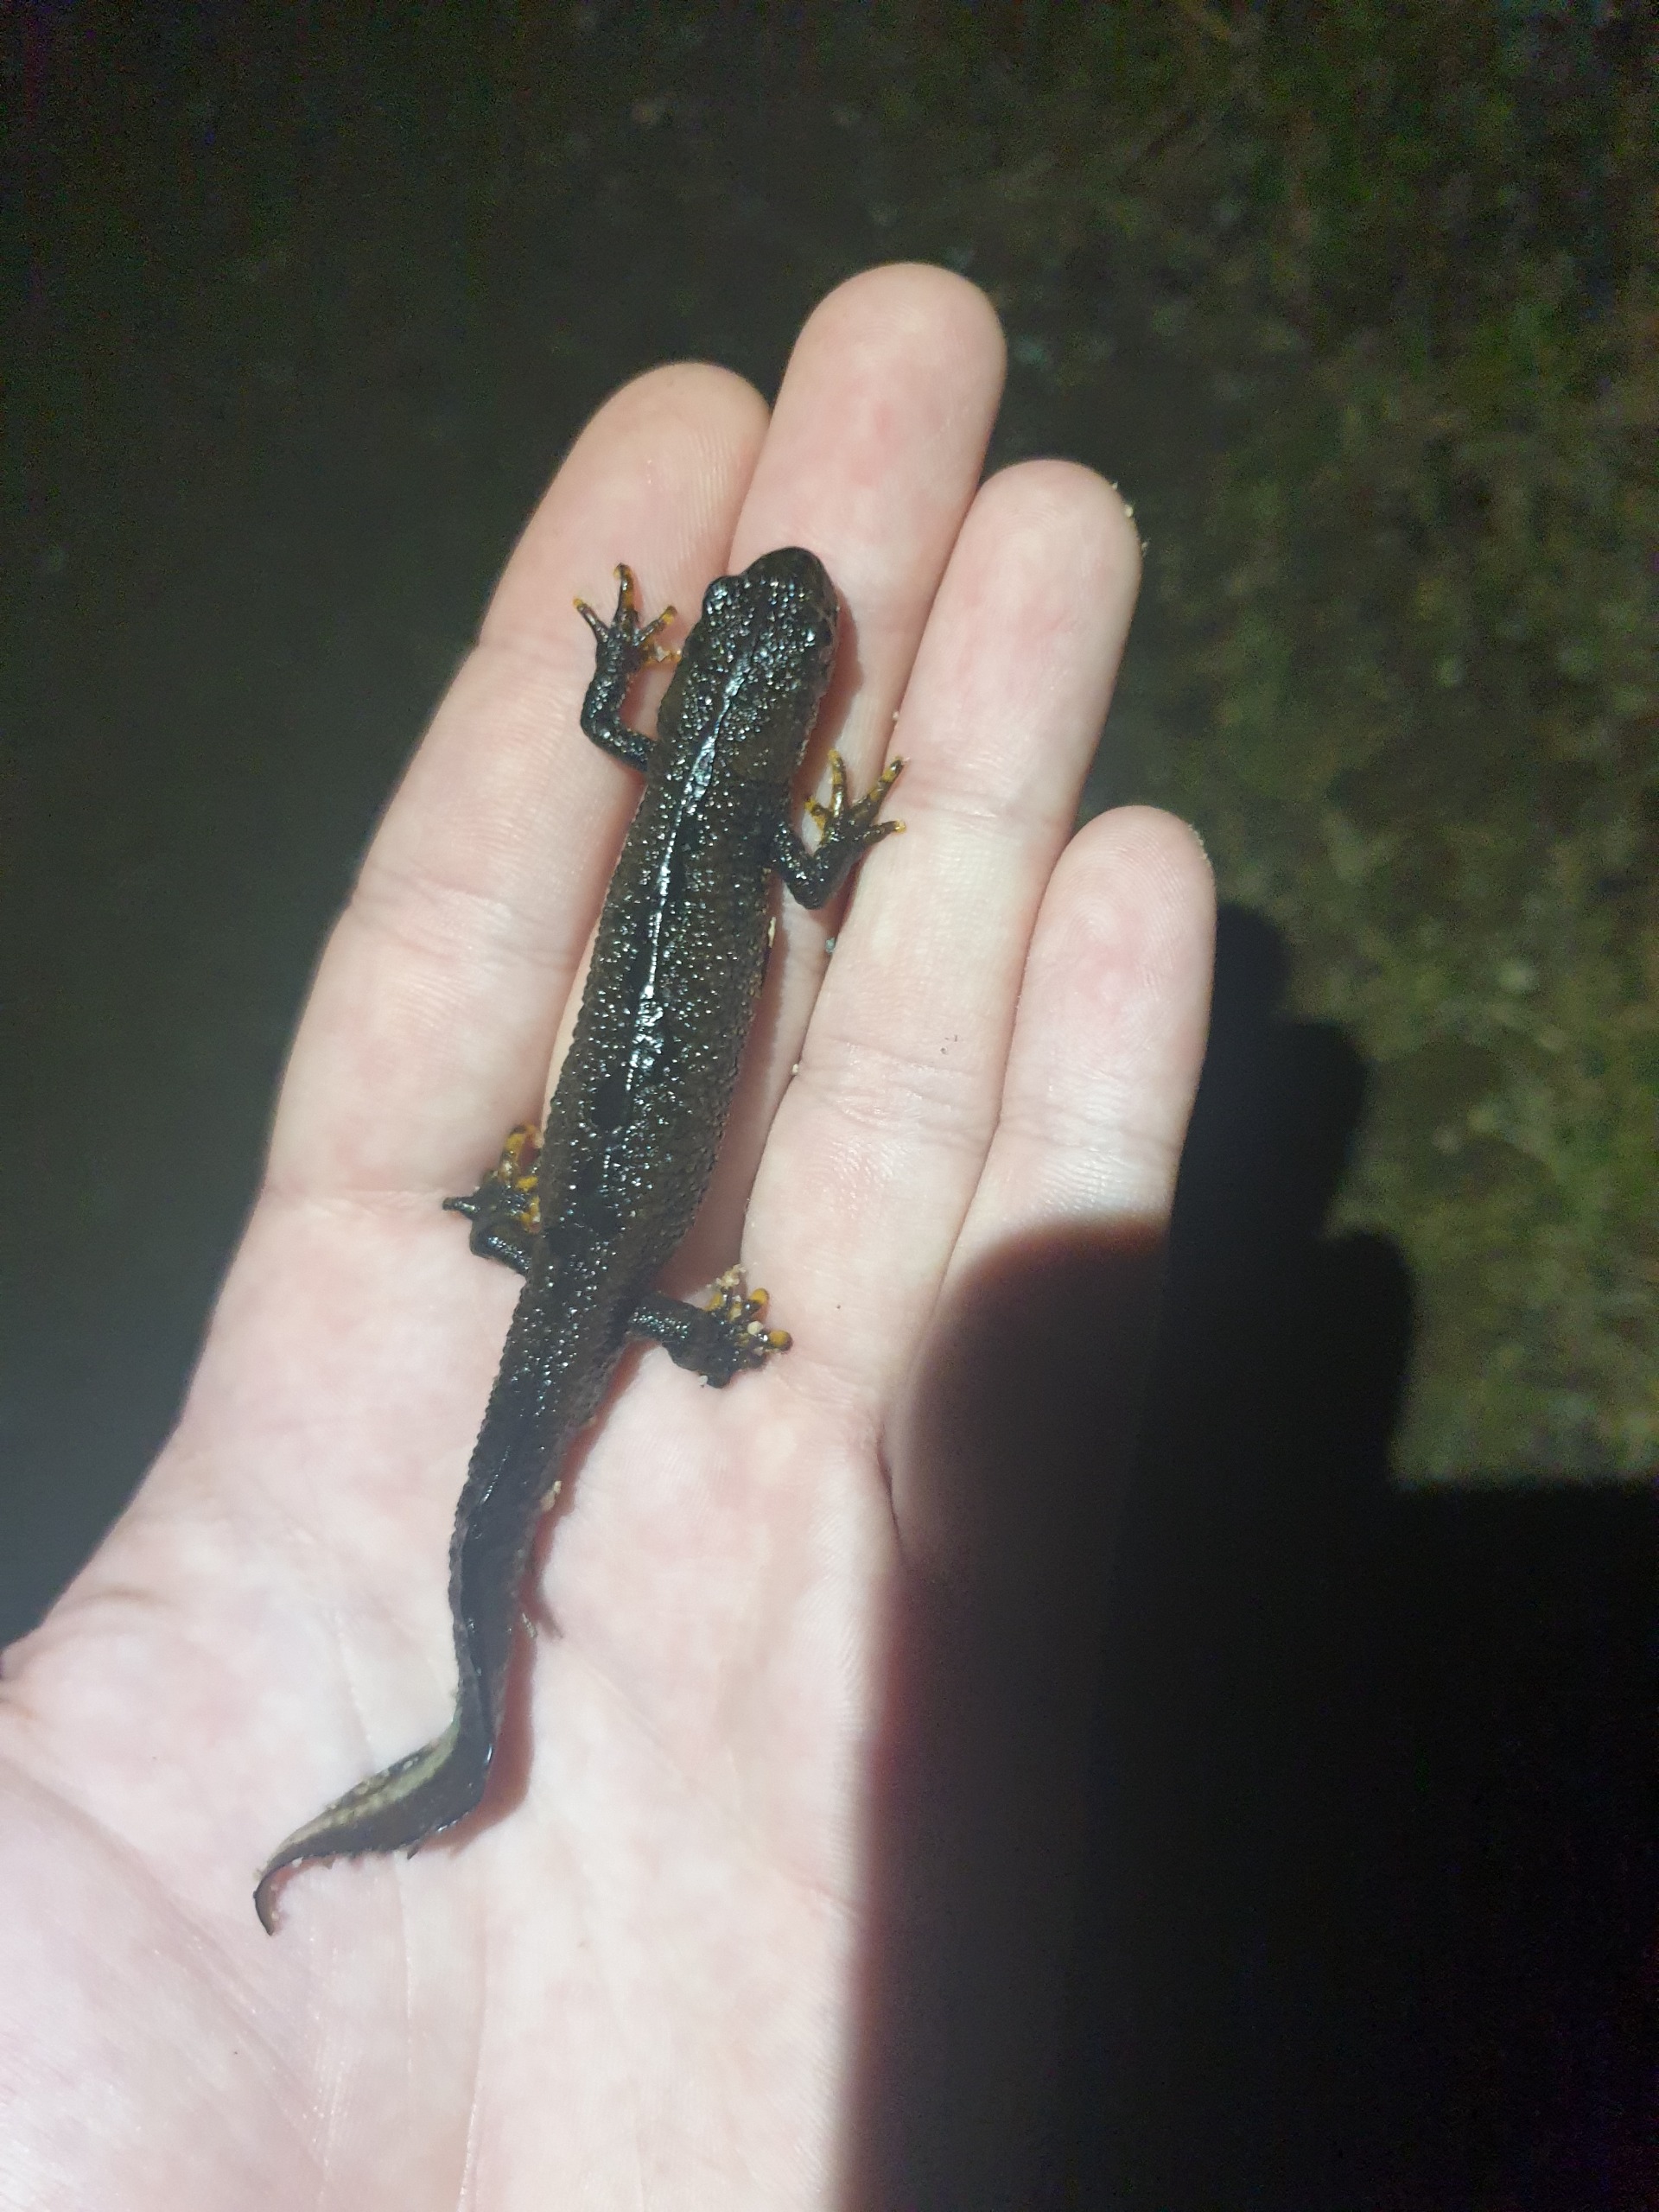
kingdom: Animalia
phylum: Chordata
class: Amphibia
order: Caudata
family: Salamandridae
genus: Triturus
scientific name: Triturus cristatus
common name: Stor vandsalamander
